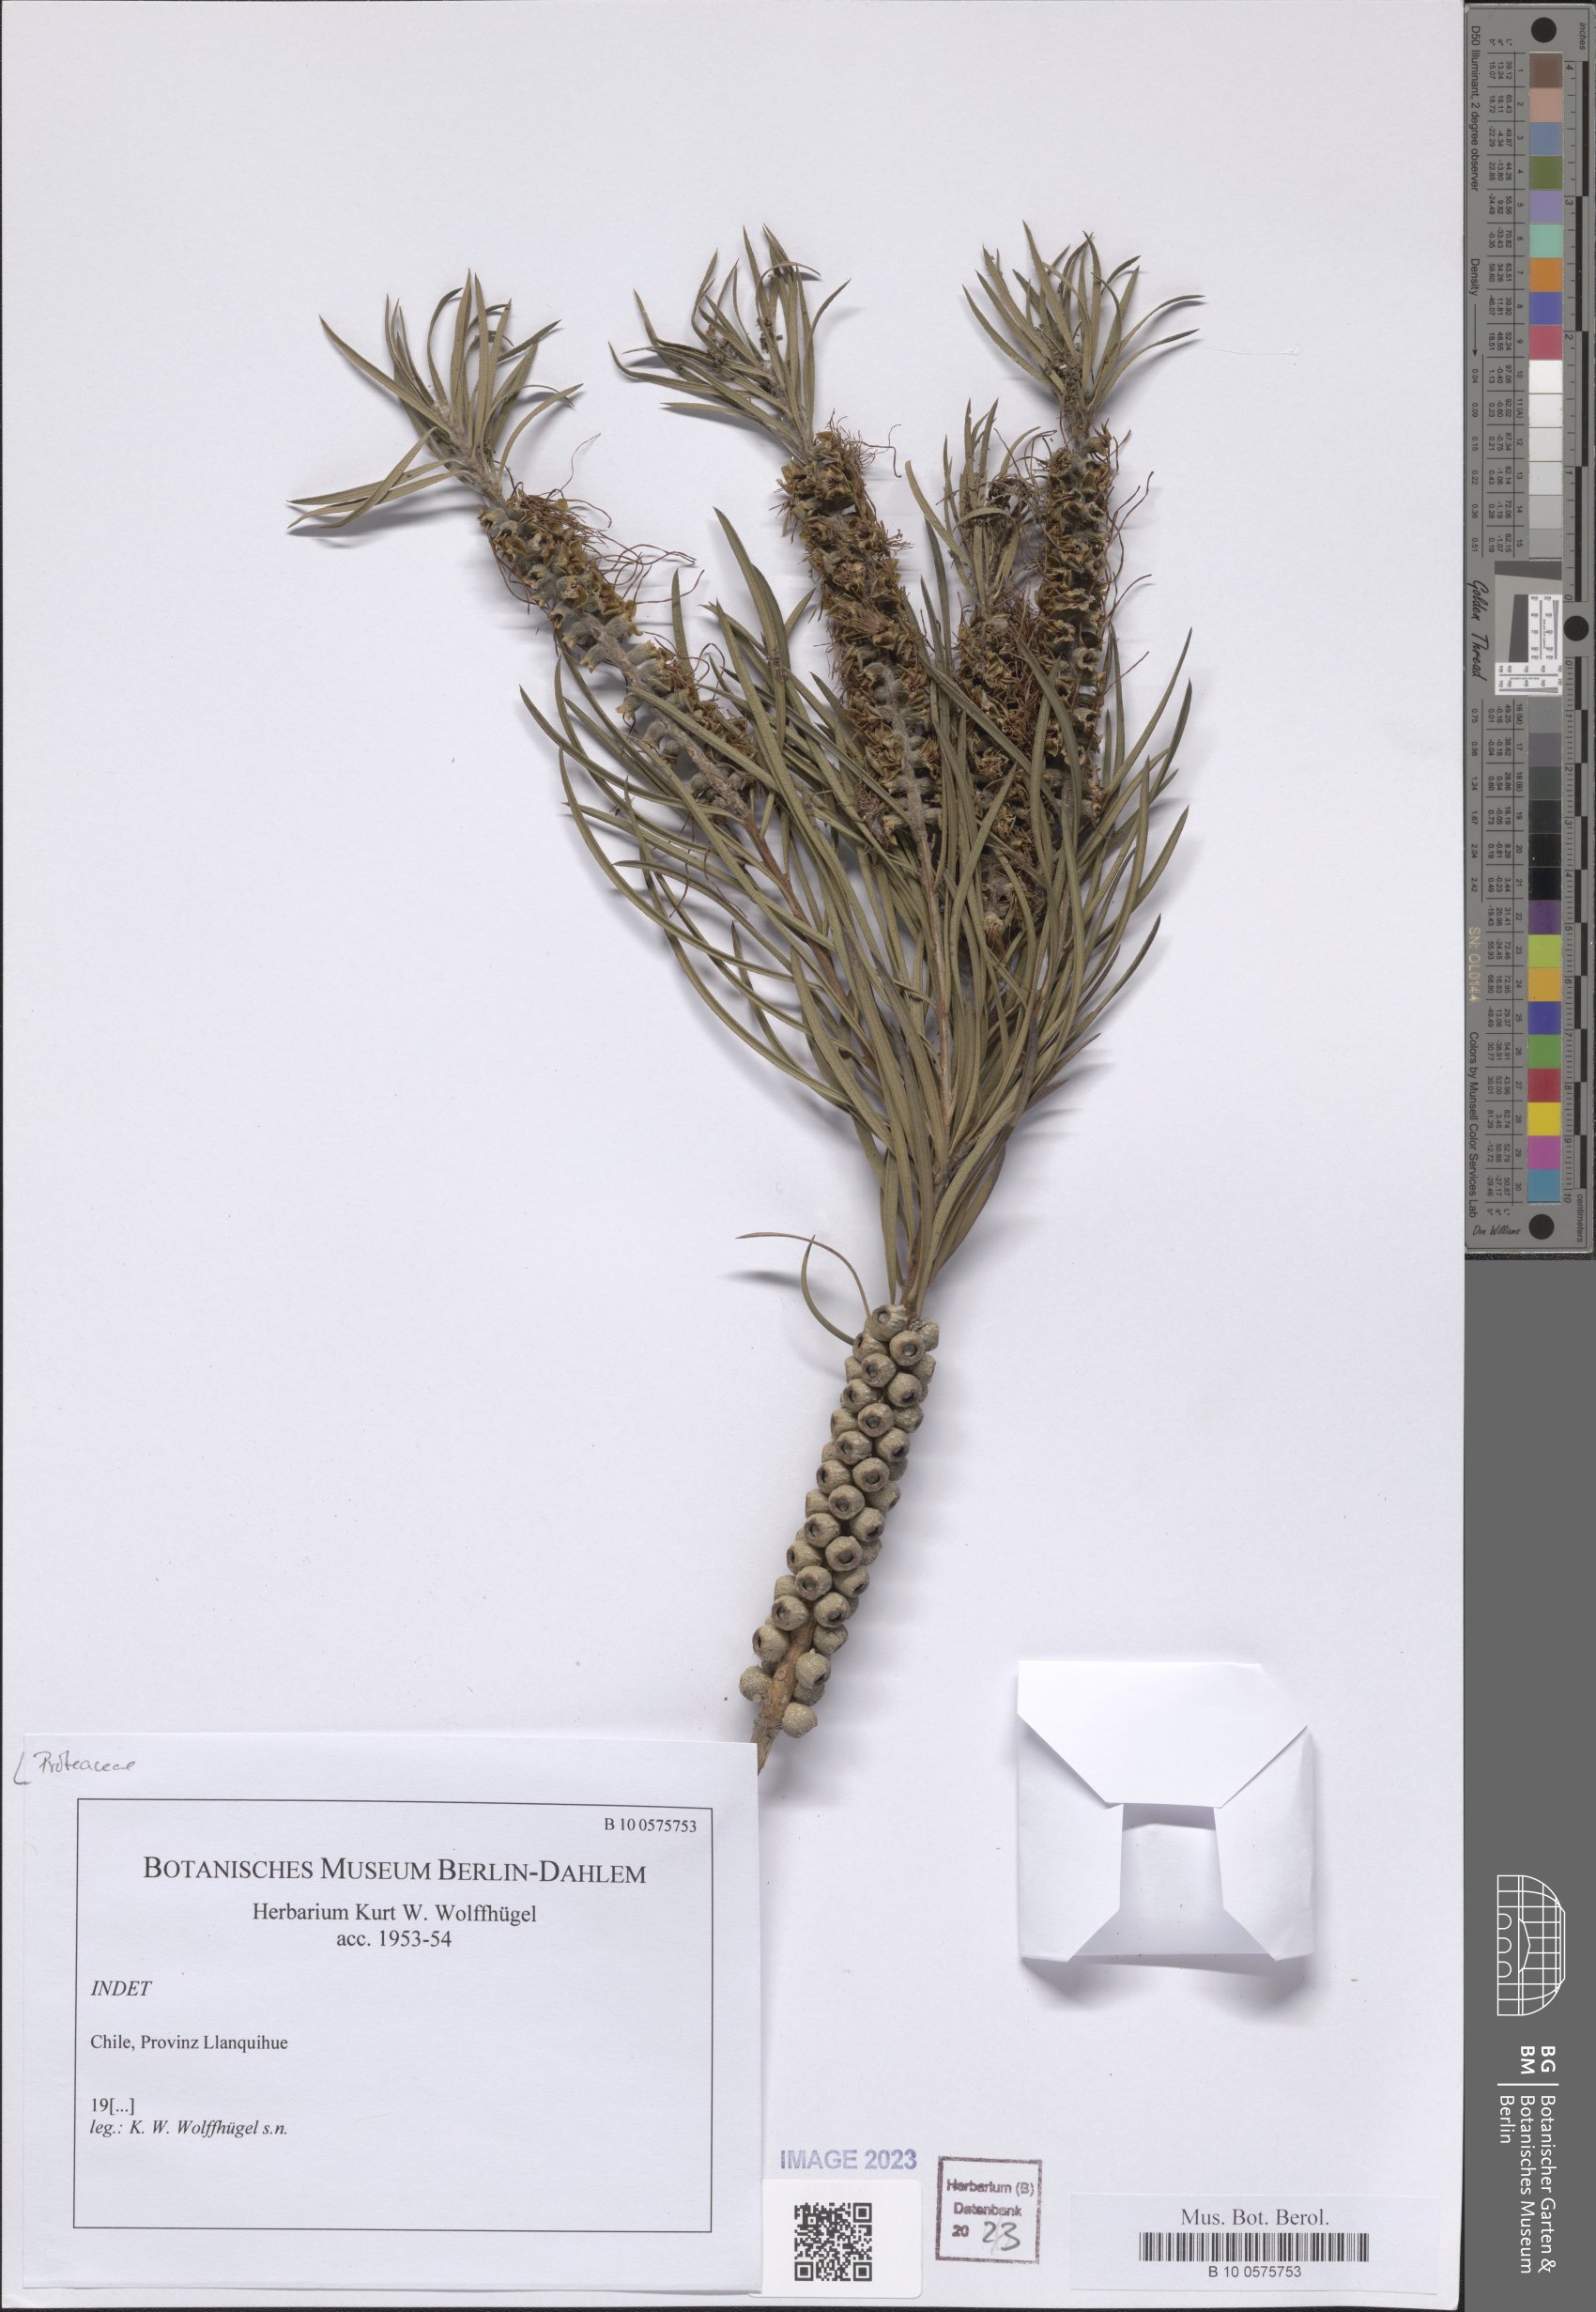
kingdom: Plantae
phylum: Tracheophyta
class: Magnoliopsida
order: Proteales
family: Proteaceae
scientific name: Proteaceae
